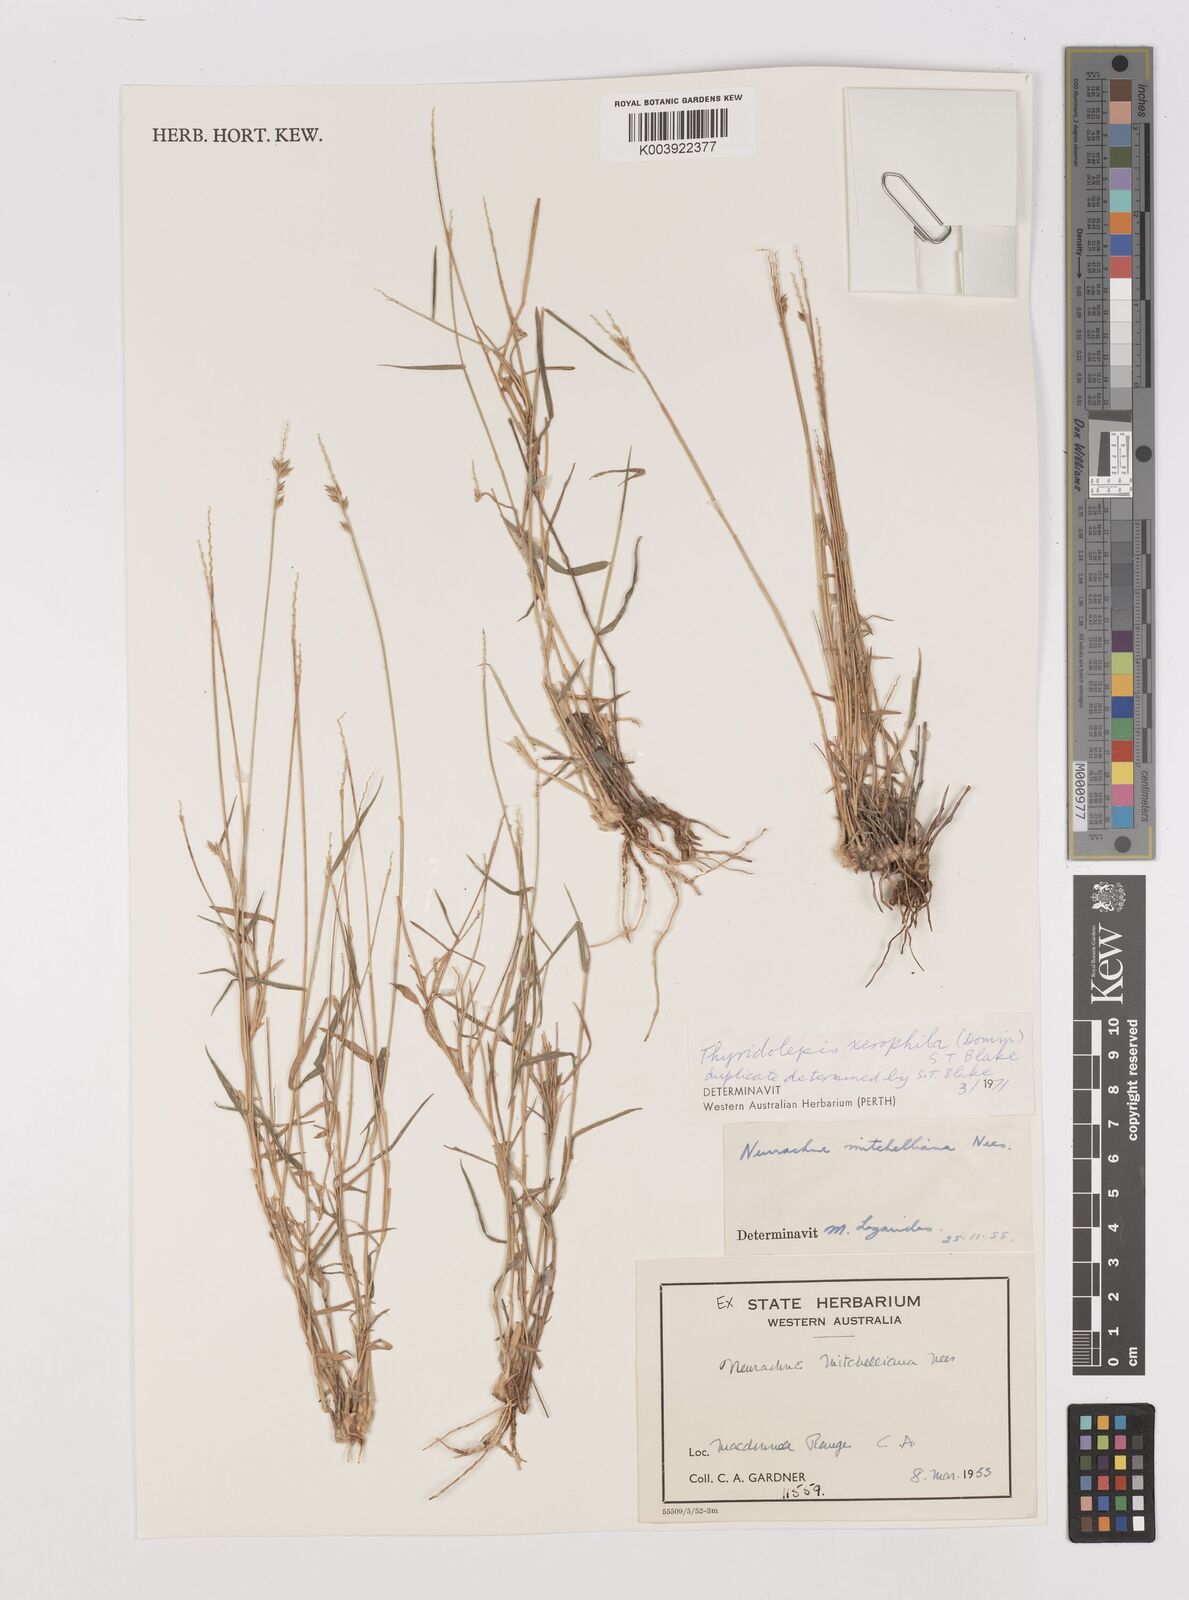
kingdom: Plantae
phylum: Tracheophyta
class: Liliopsida
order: Poales
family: Poaceae
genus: Thyridolepis
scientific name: Thyridolepis xerophila
